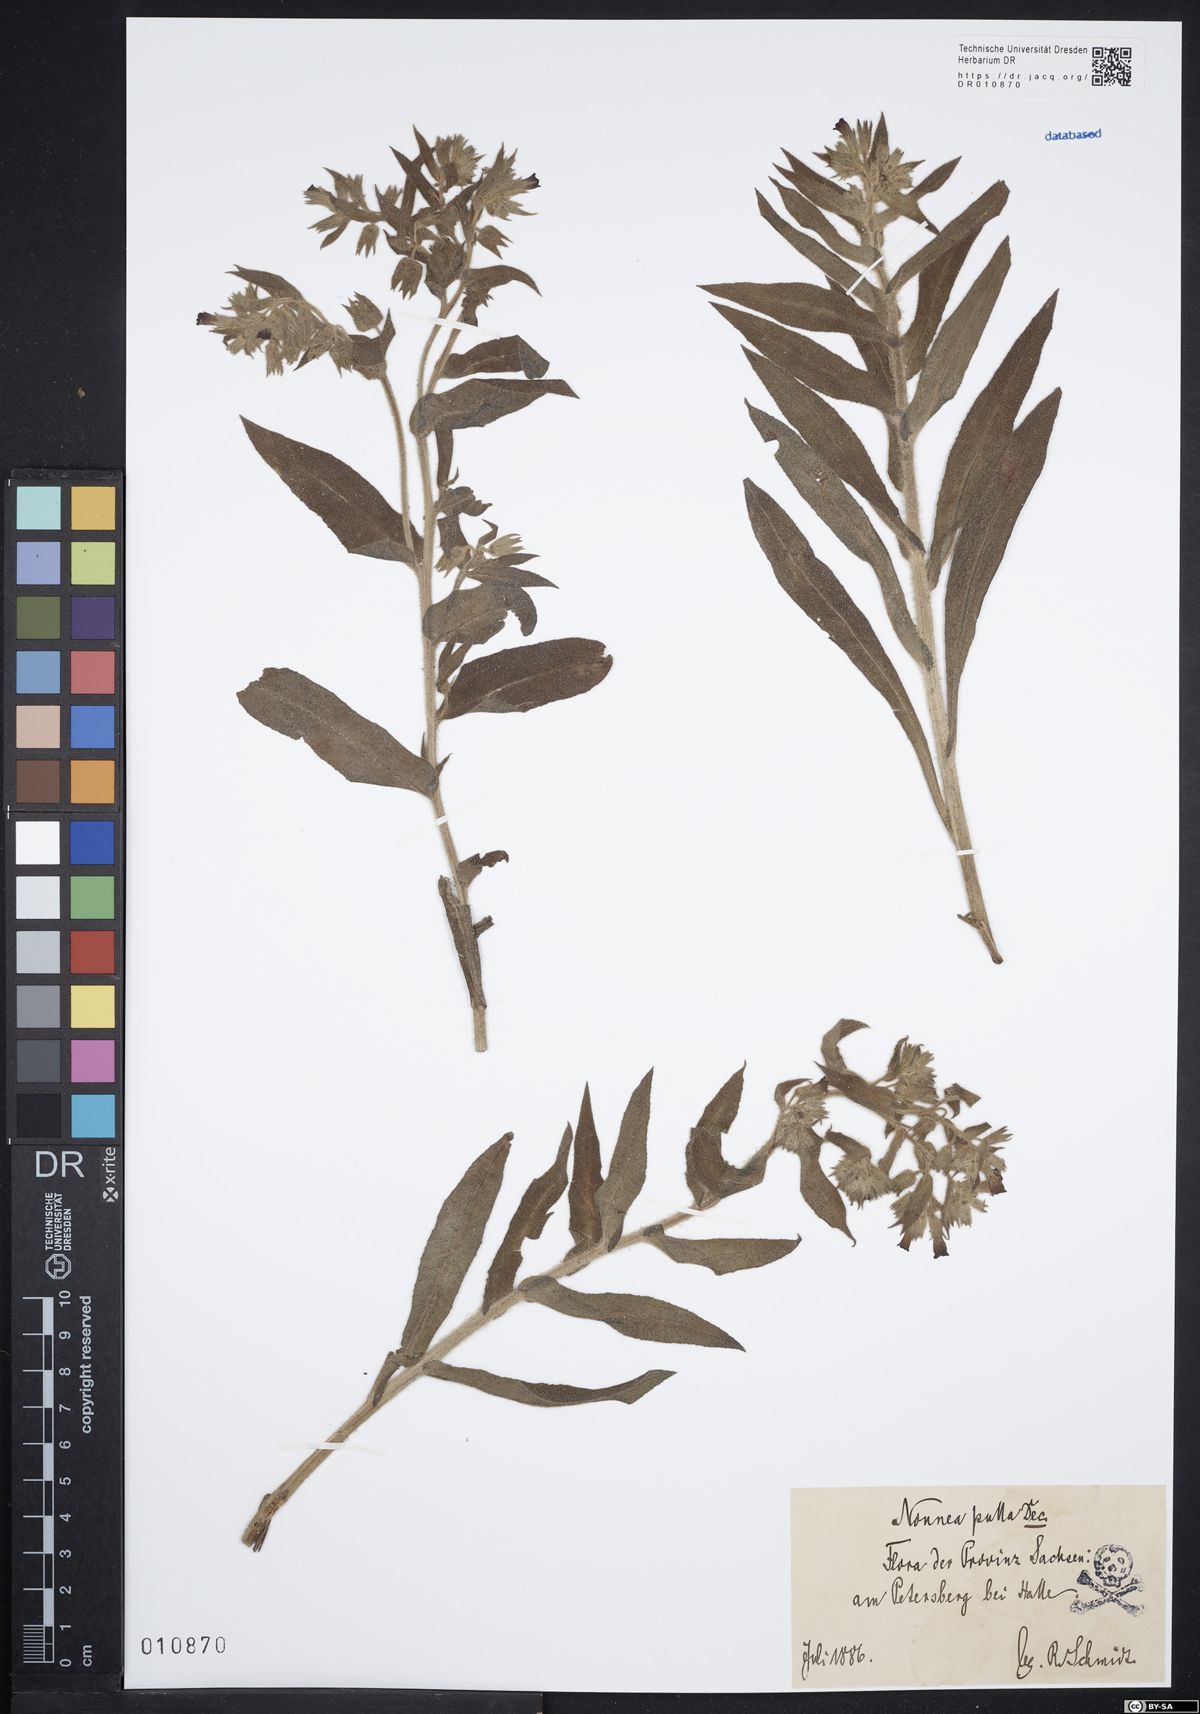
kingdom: Plantae
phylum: Tracheophyta
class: Magnoliopsida
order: Boraginales
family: Boraginaceae
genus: Nonea
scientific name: Nonea pulla
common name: Brown nonea
